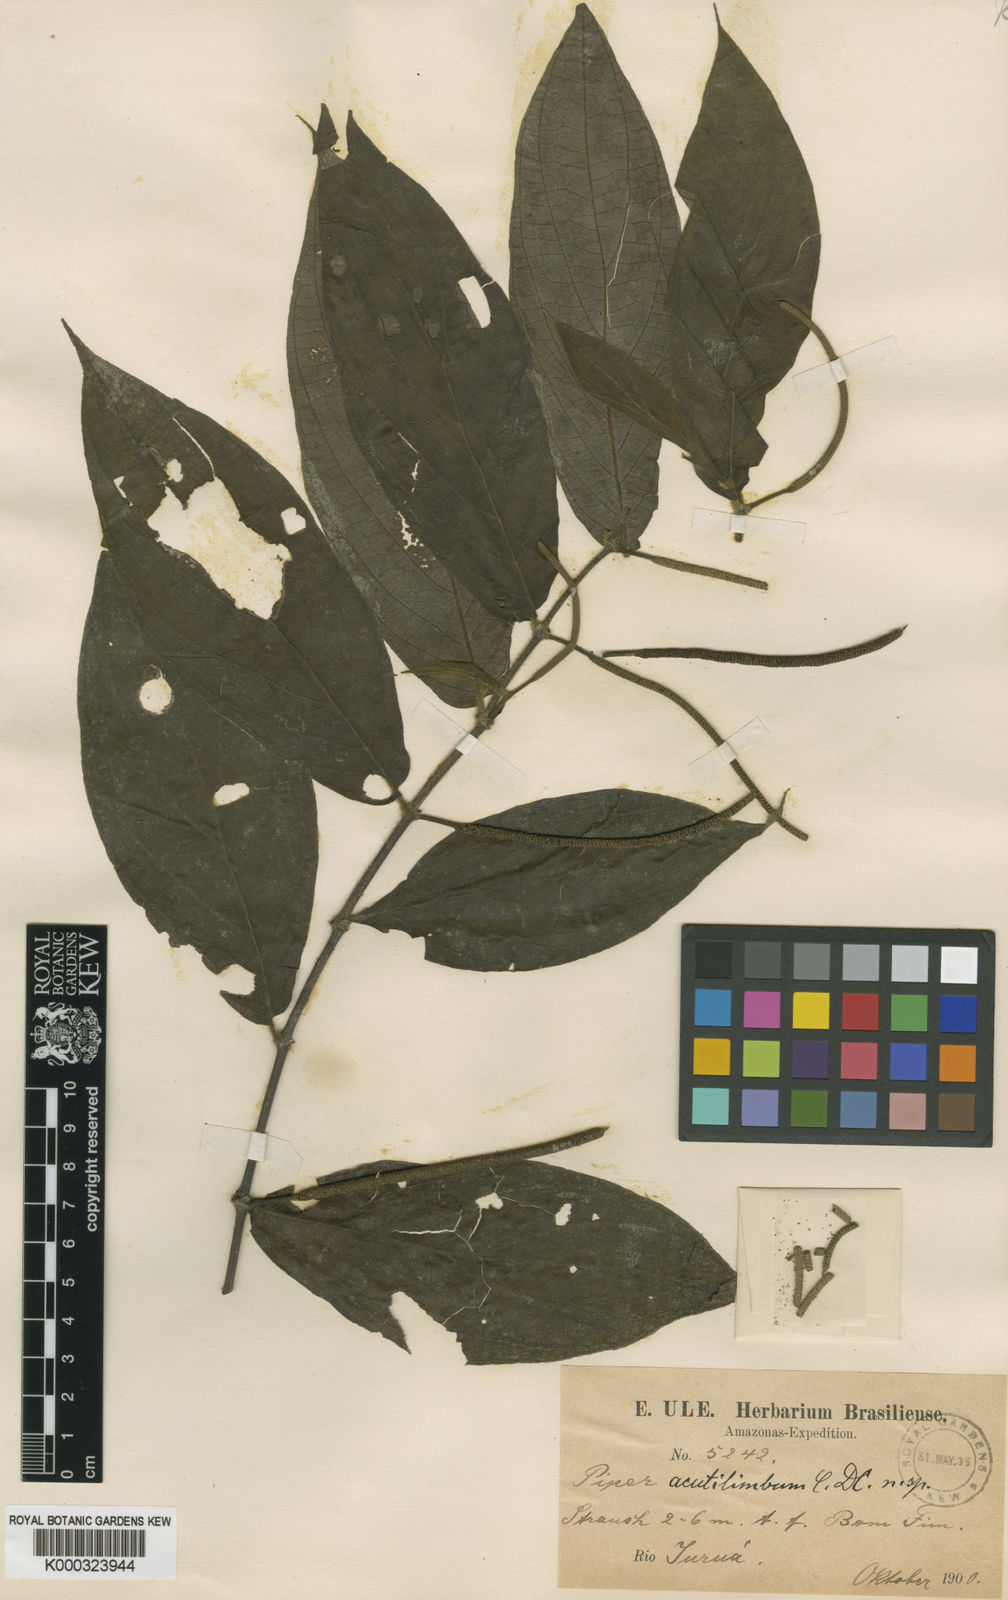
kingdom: Plantae
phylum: Tracheophyta
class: Magnoliopsida
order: Piperales
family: Piperaceae
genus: Piper
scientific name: Piper acutilimbum
